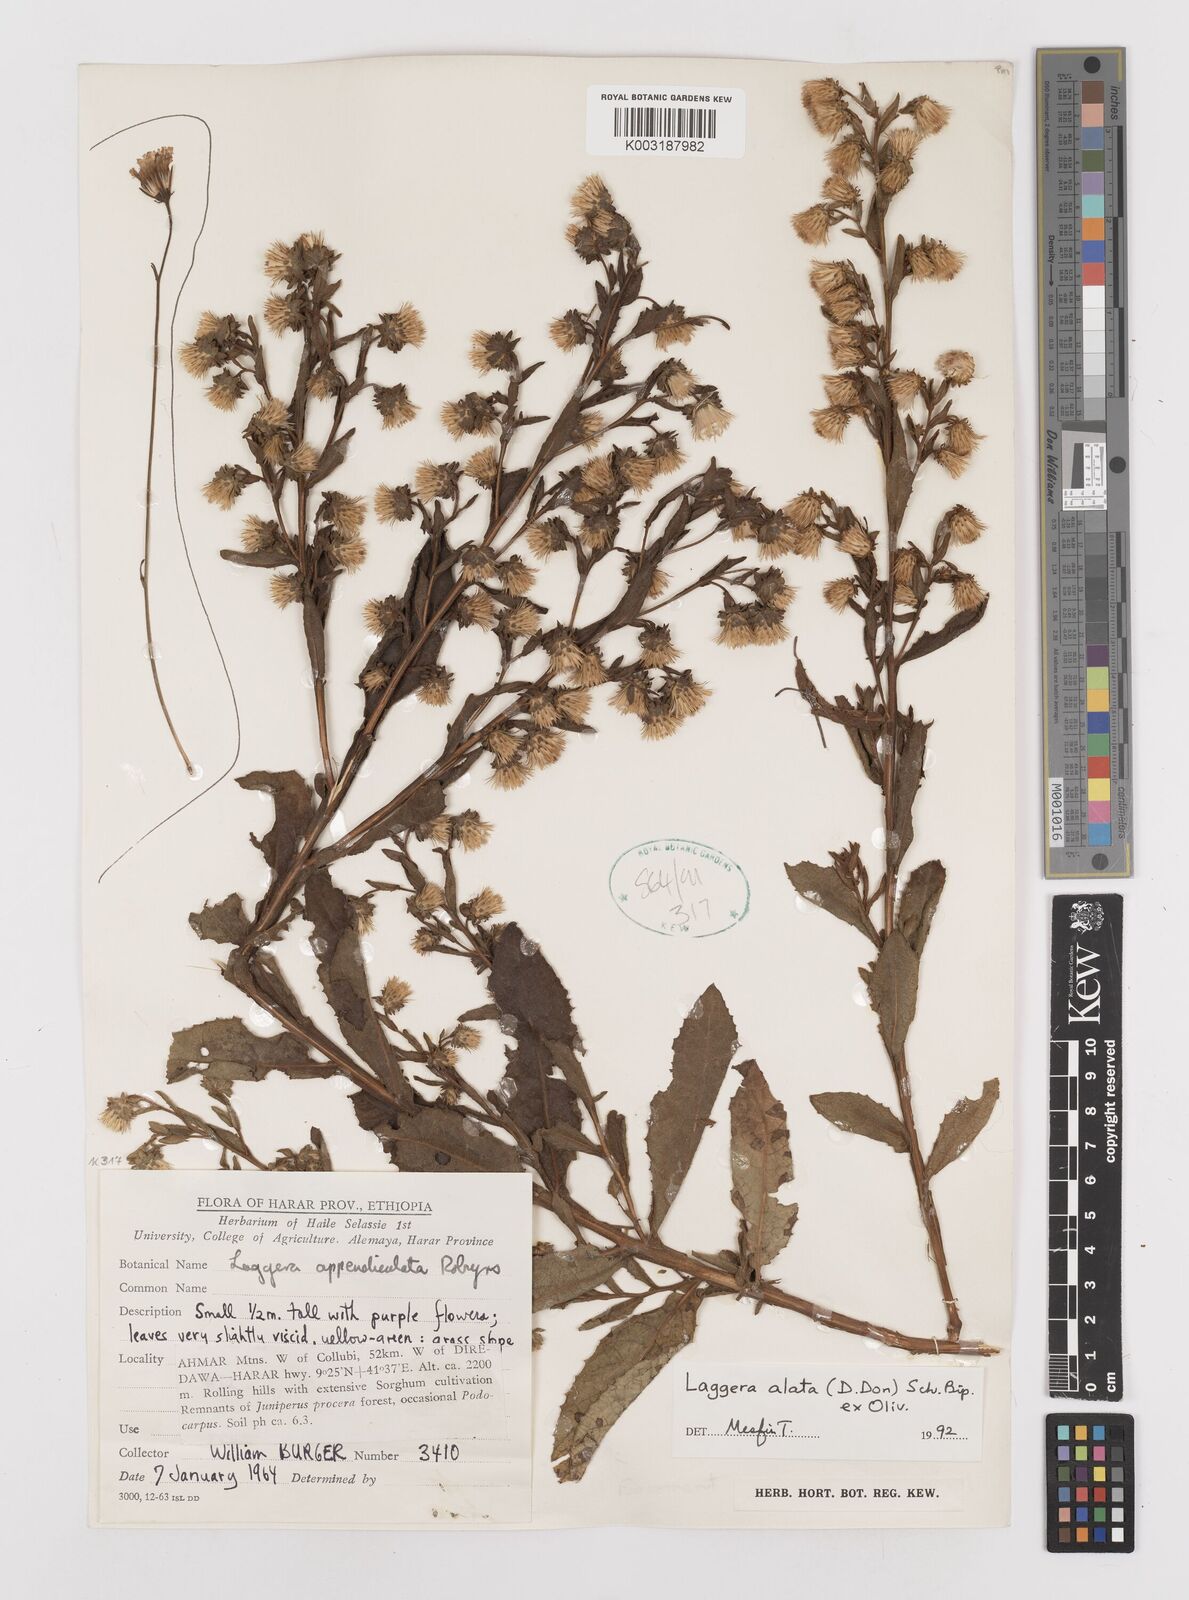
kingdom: Plantae
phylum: Tracheophyta
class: Magnoliopsida
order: Asterales
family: Asteraceae
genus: Laggera
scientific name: Laggera crispata
